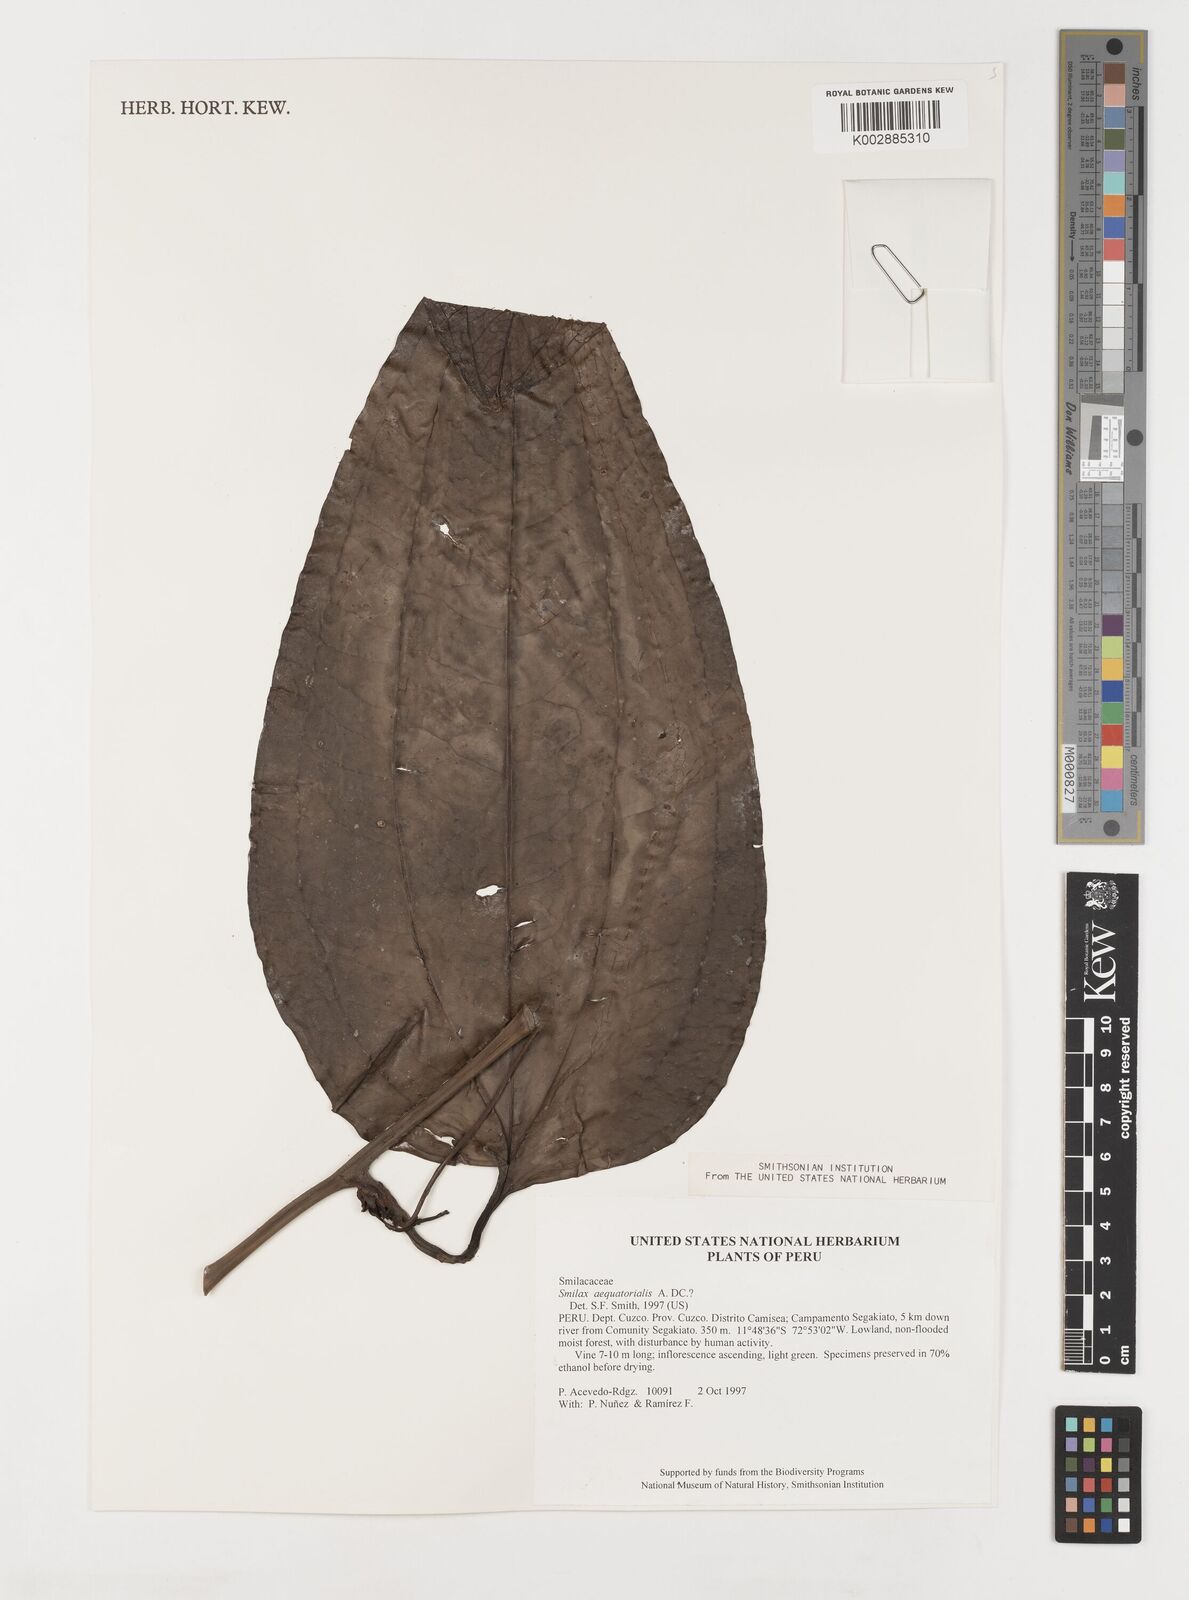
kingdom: Plantae
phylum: Tracheophyta
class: Liliopsida
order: Liliales
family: Smilacaceae
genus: Smilax
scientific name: Smilax siphilitica
